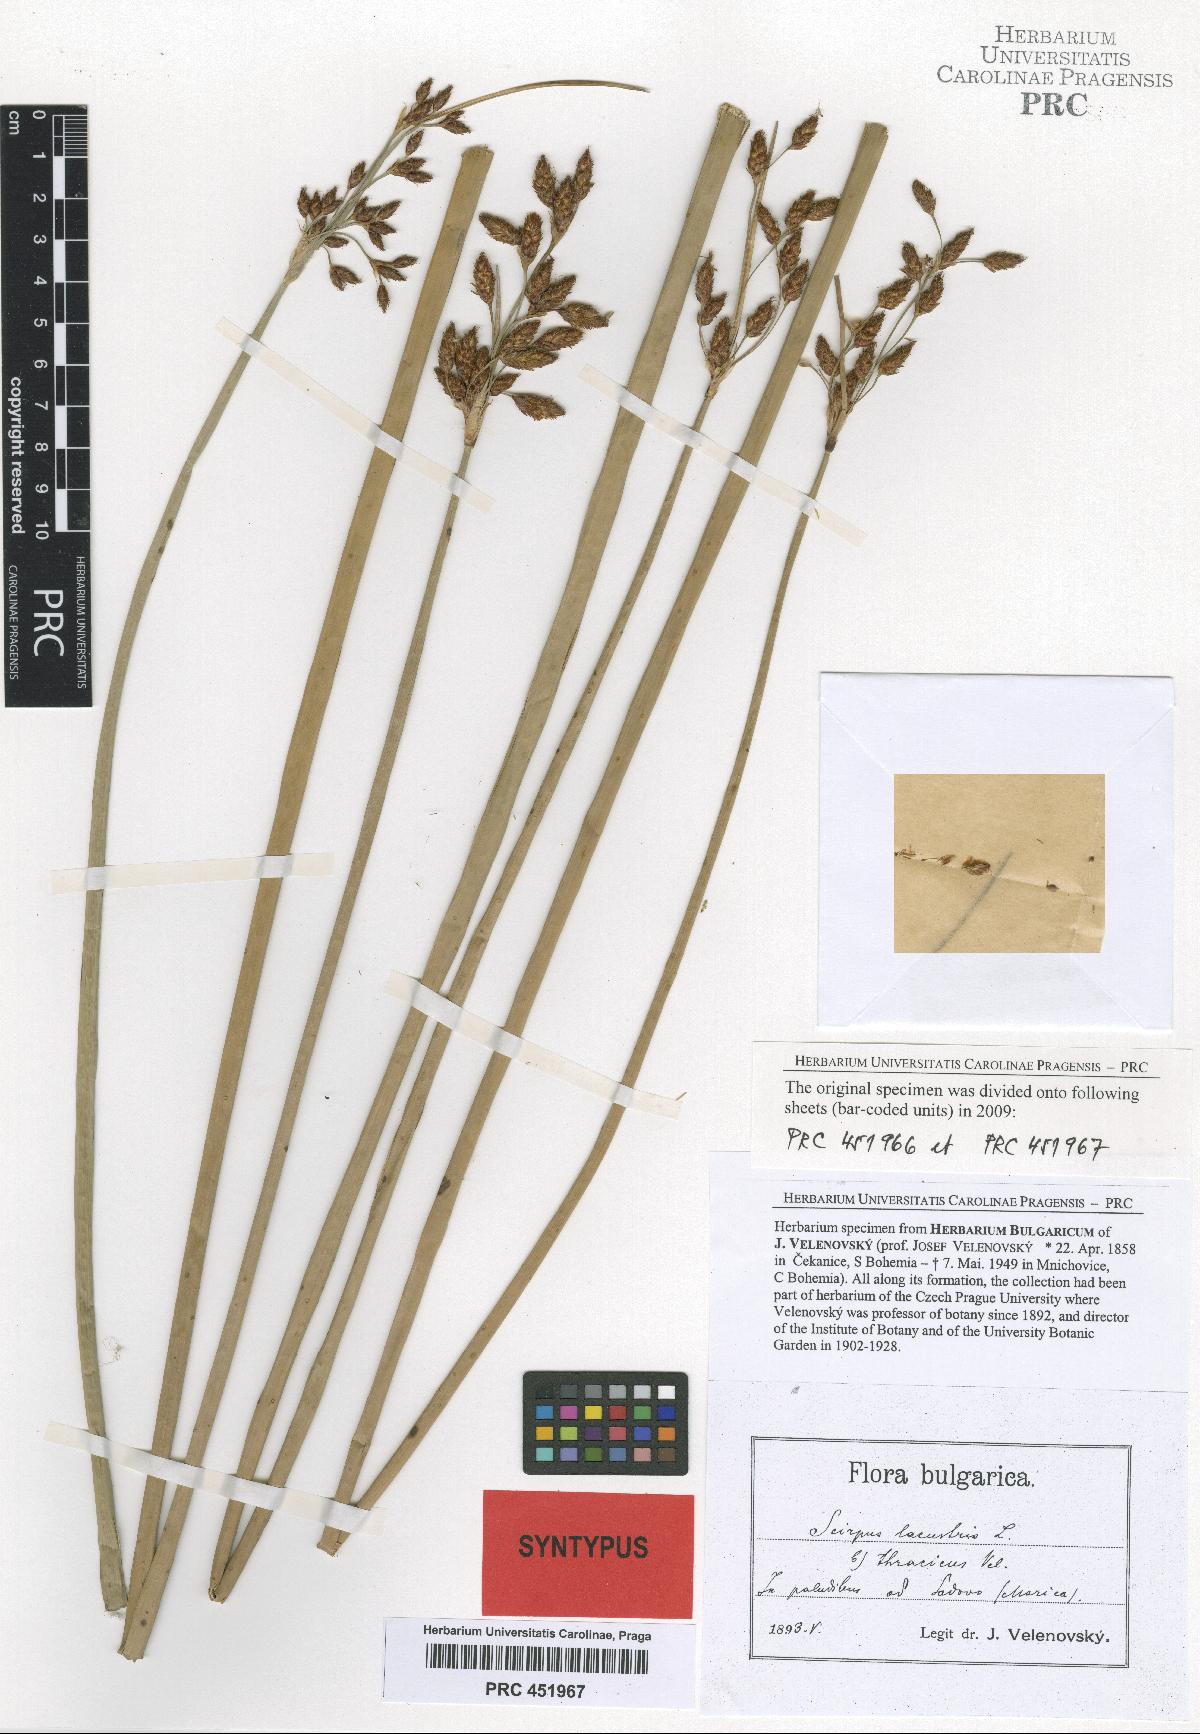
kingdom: Plantae
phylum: Tracheophyta
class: Liliopsida
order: Poales
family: Cyperaceae
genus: Schoenoplectus
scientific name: Schoenoplectus lacustris
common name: Common club-rush
